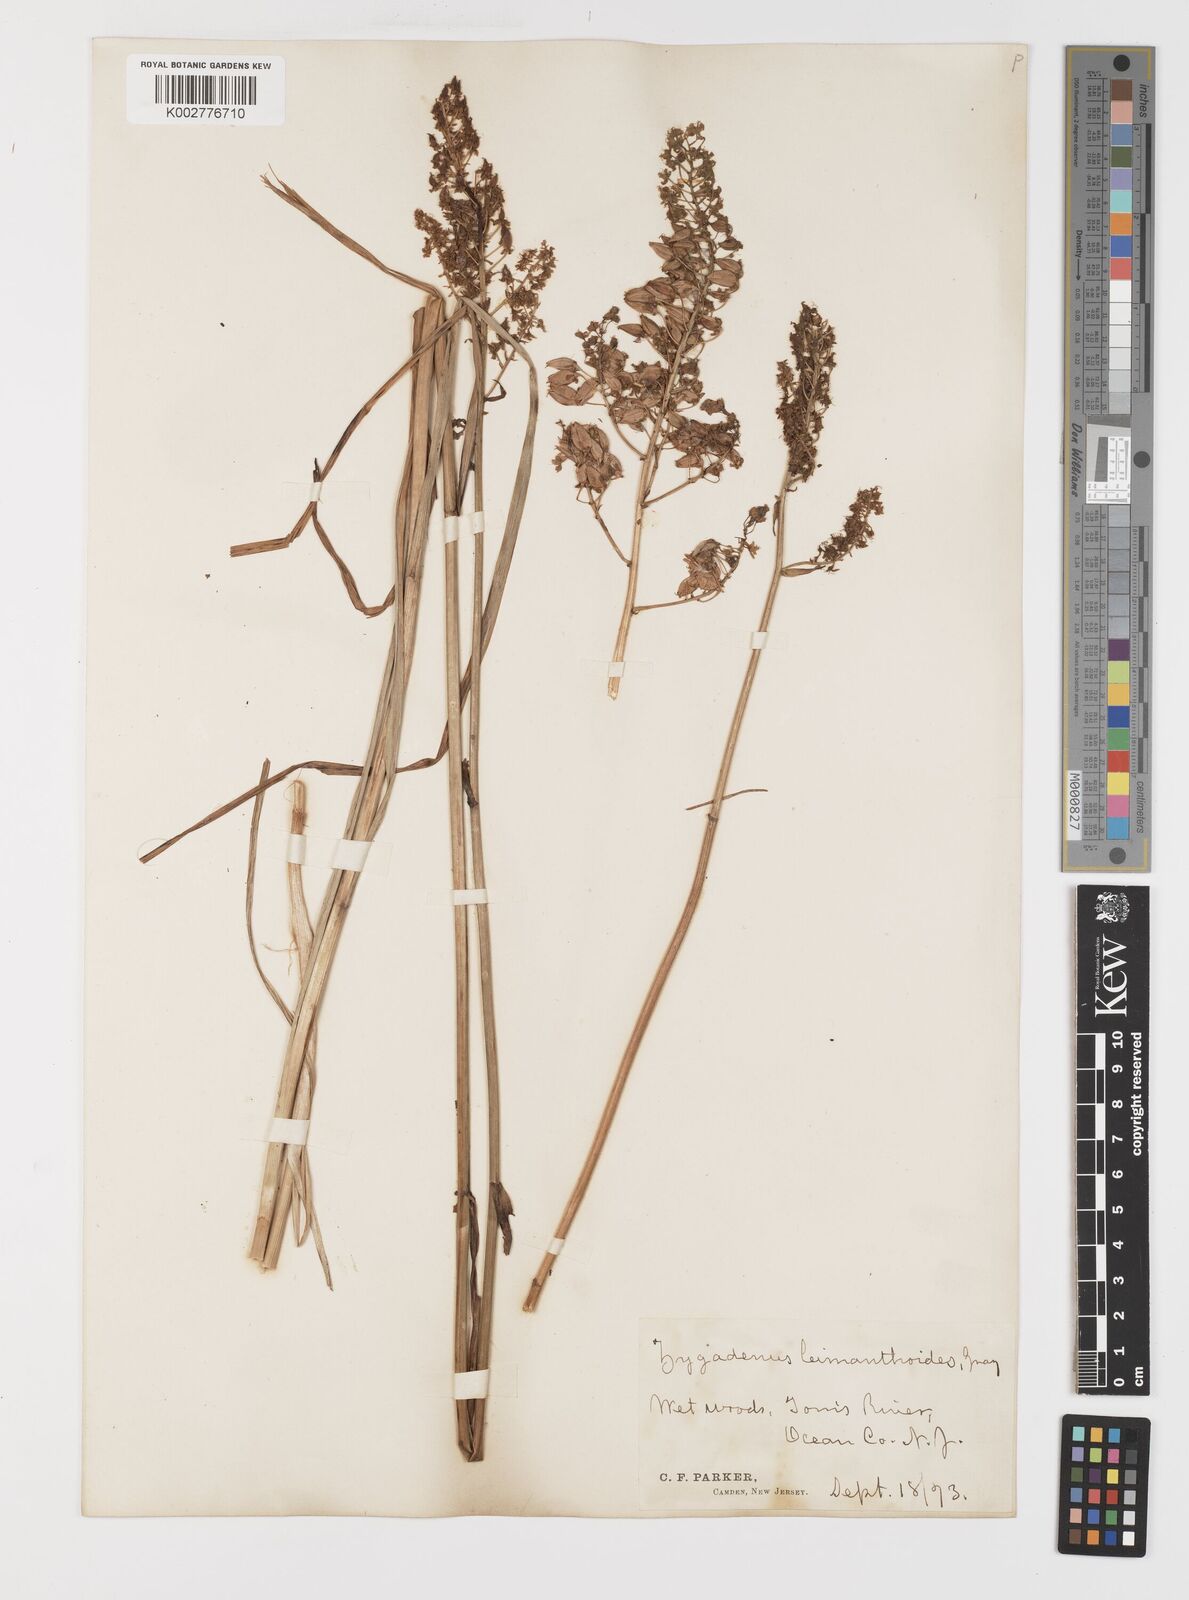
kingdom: Plantae
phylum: Tracheophyta
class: Liliopsida
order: Liliales
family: Melanthiaceae
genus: Stenanthium
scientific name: Stenanthium leimanthoides
